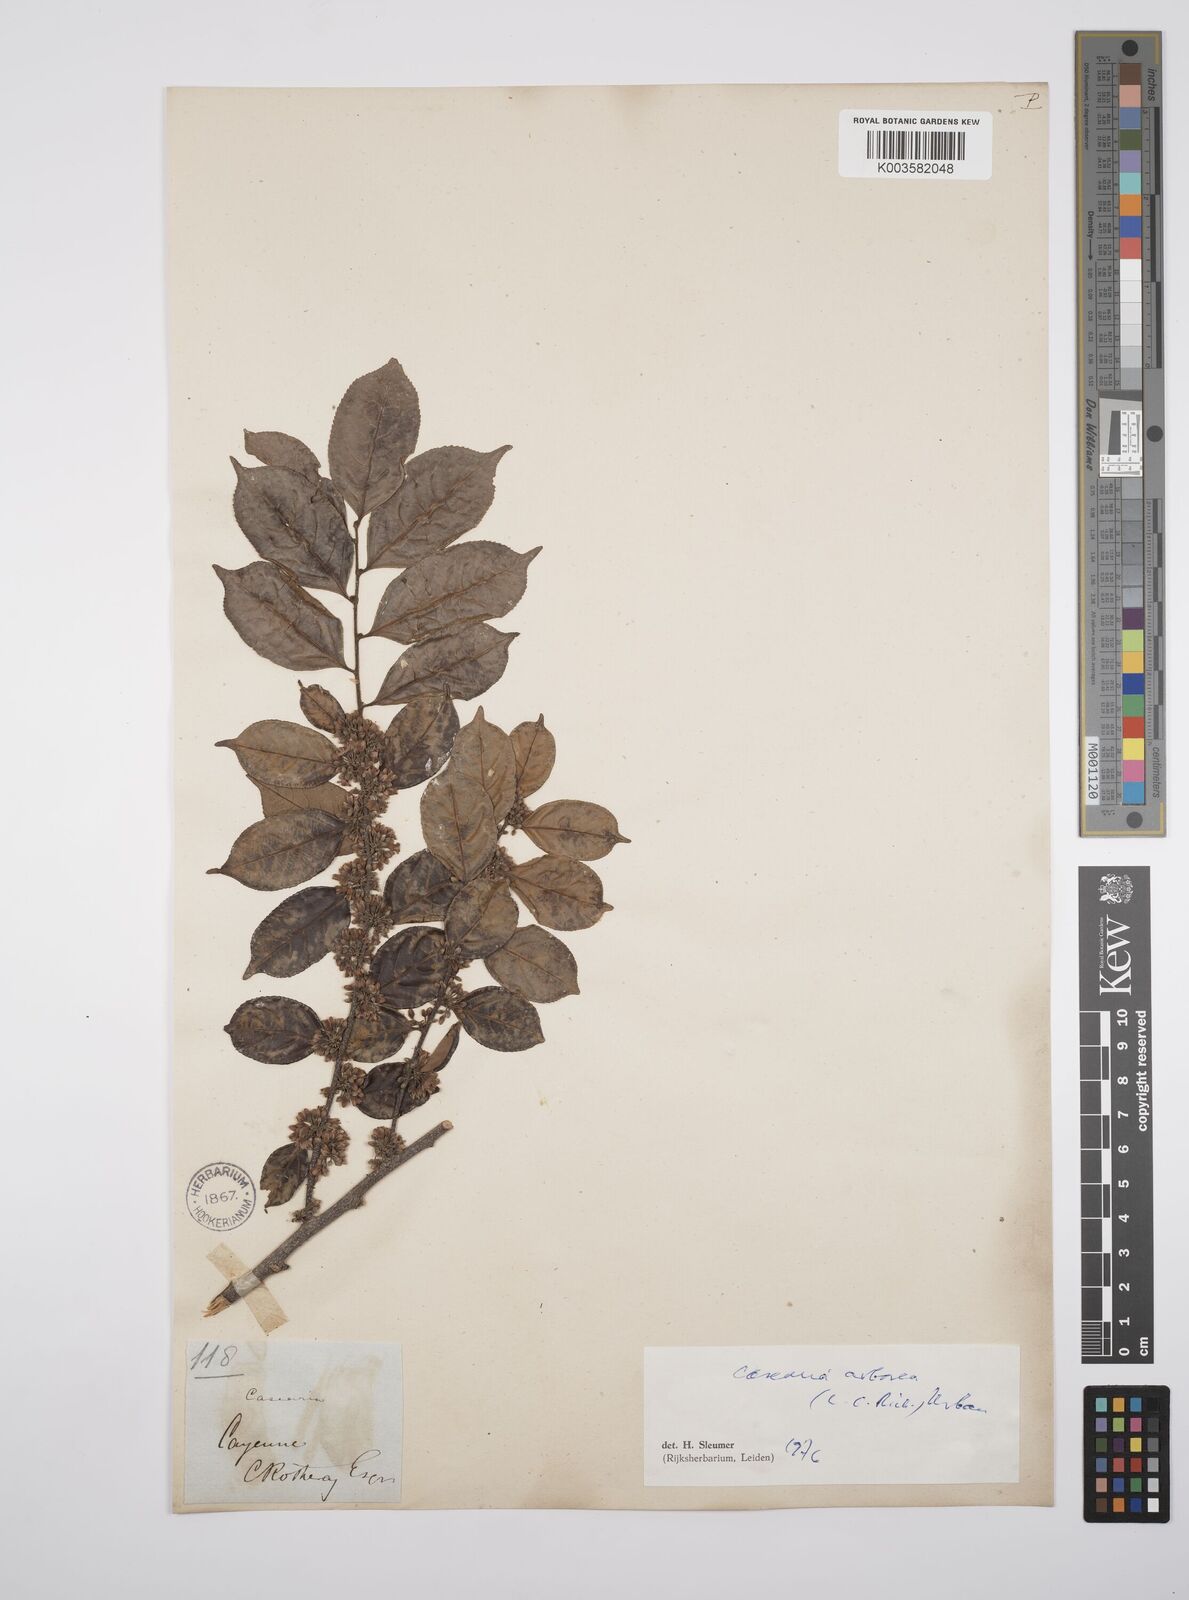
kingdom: Plantae
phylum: Tracheophyta
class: Magnoliopsida
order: Malpighiales
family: Salicaceae
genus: Casearia
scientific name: Casearia arborea
